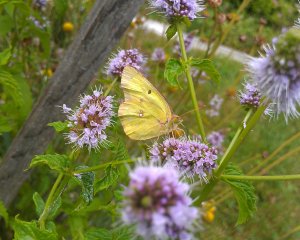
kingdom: Animalia
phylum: Arthropoda
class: Insecta
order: Lepidoptera
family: Pieridae
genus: Colias
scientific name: Colias philodice
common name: Clouded Sulphur
